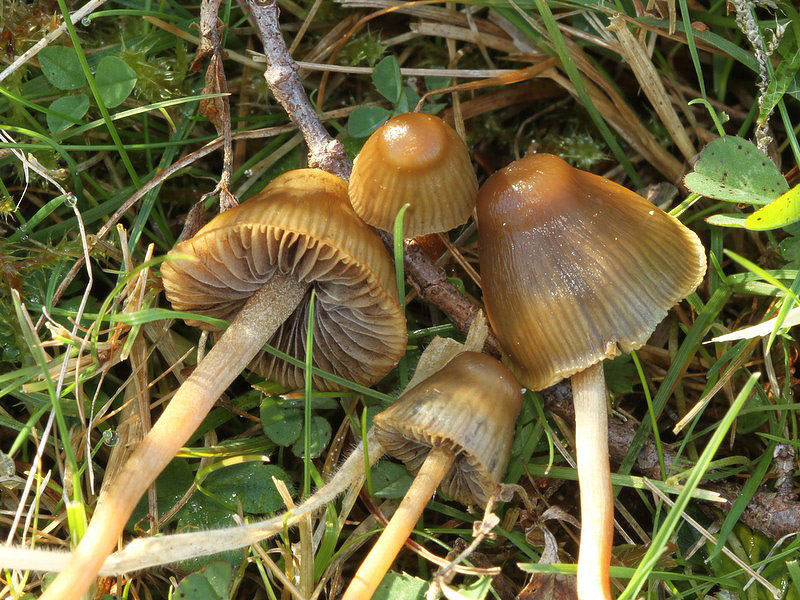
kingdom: Fungi
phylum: Basidiomycota
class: Agaricomycetes
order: Agaricales
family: Hymenogastraceae
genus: Psilocybe
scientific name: Psilocybe semilanceata
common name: spids nøgenhat
